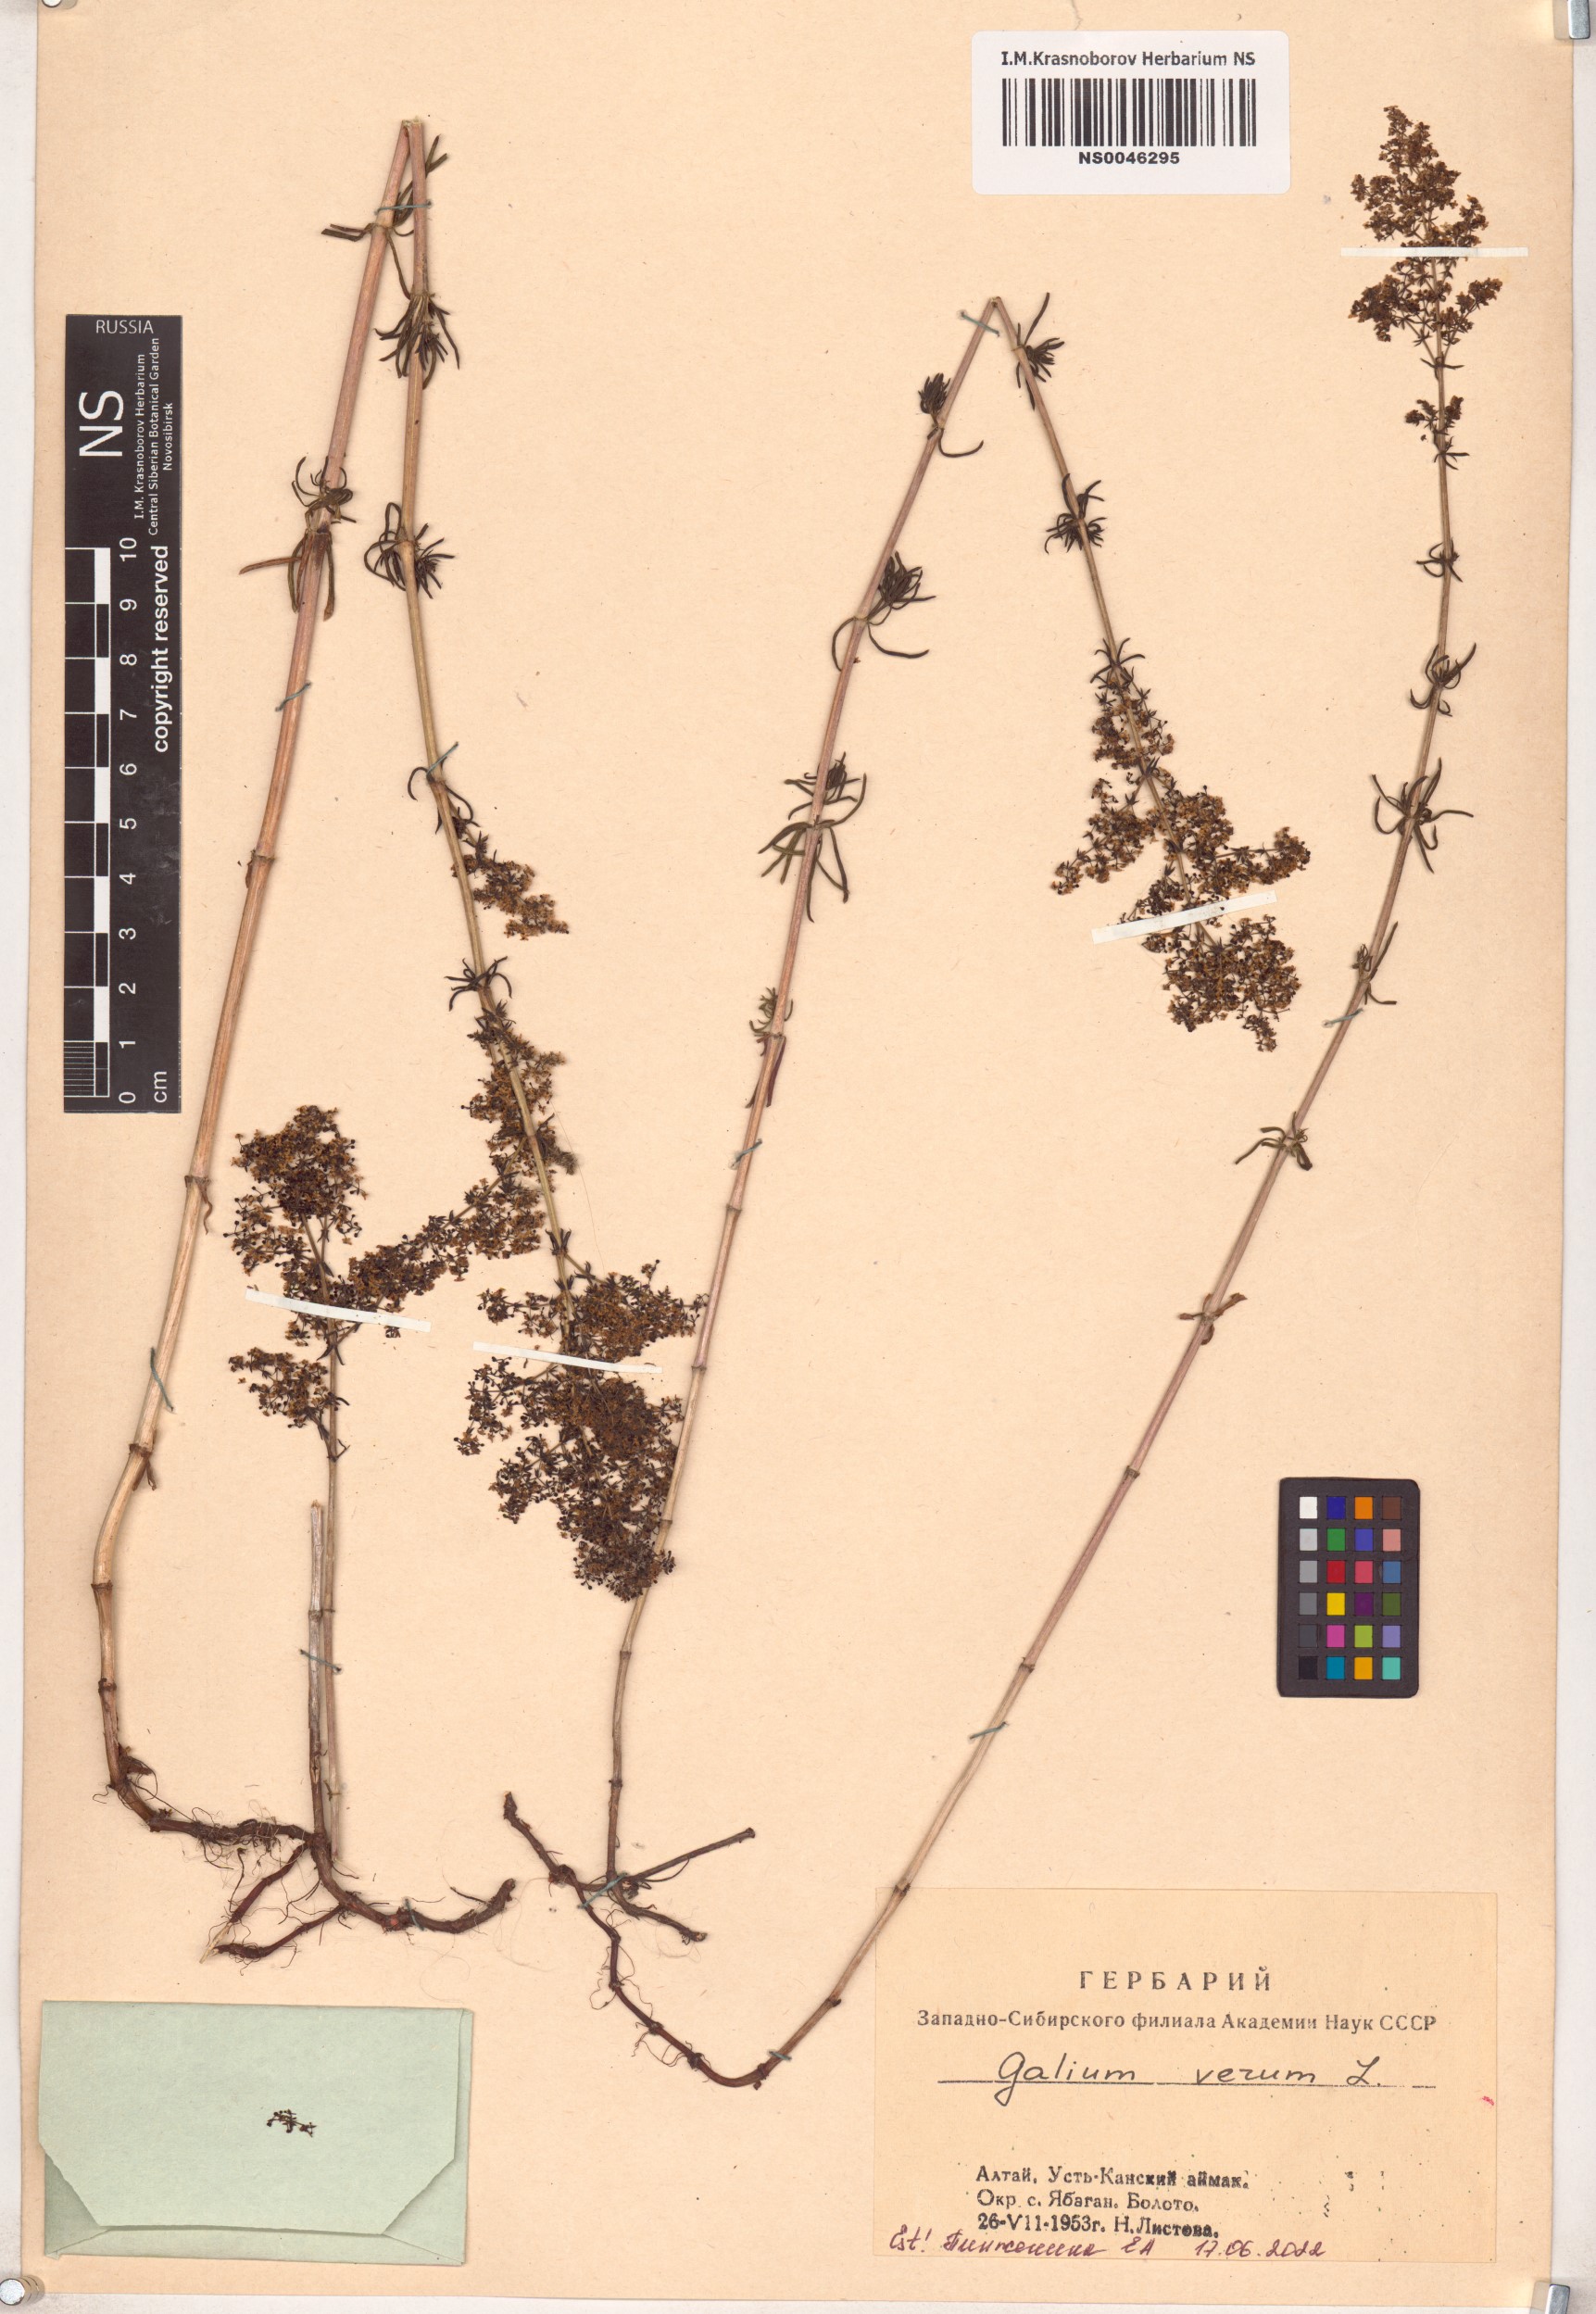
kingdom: Plantae
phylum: Tracheophyta
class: Magnoliopsida
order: Gentianales
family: Rubiaceae
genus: Galium
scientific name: Galium verum
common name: Lady's bedstraw
